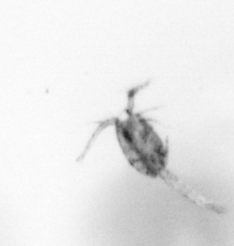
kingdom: Animalia
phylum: Arthropoda
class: Copepoda
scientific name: Copepoda
